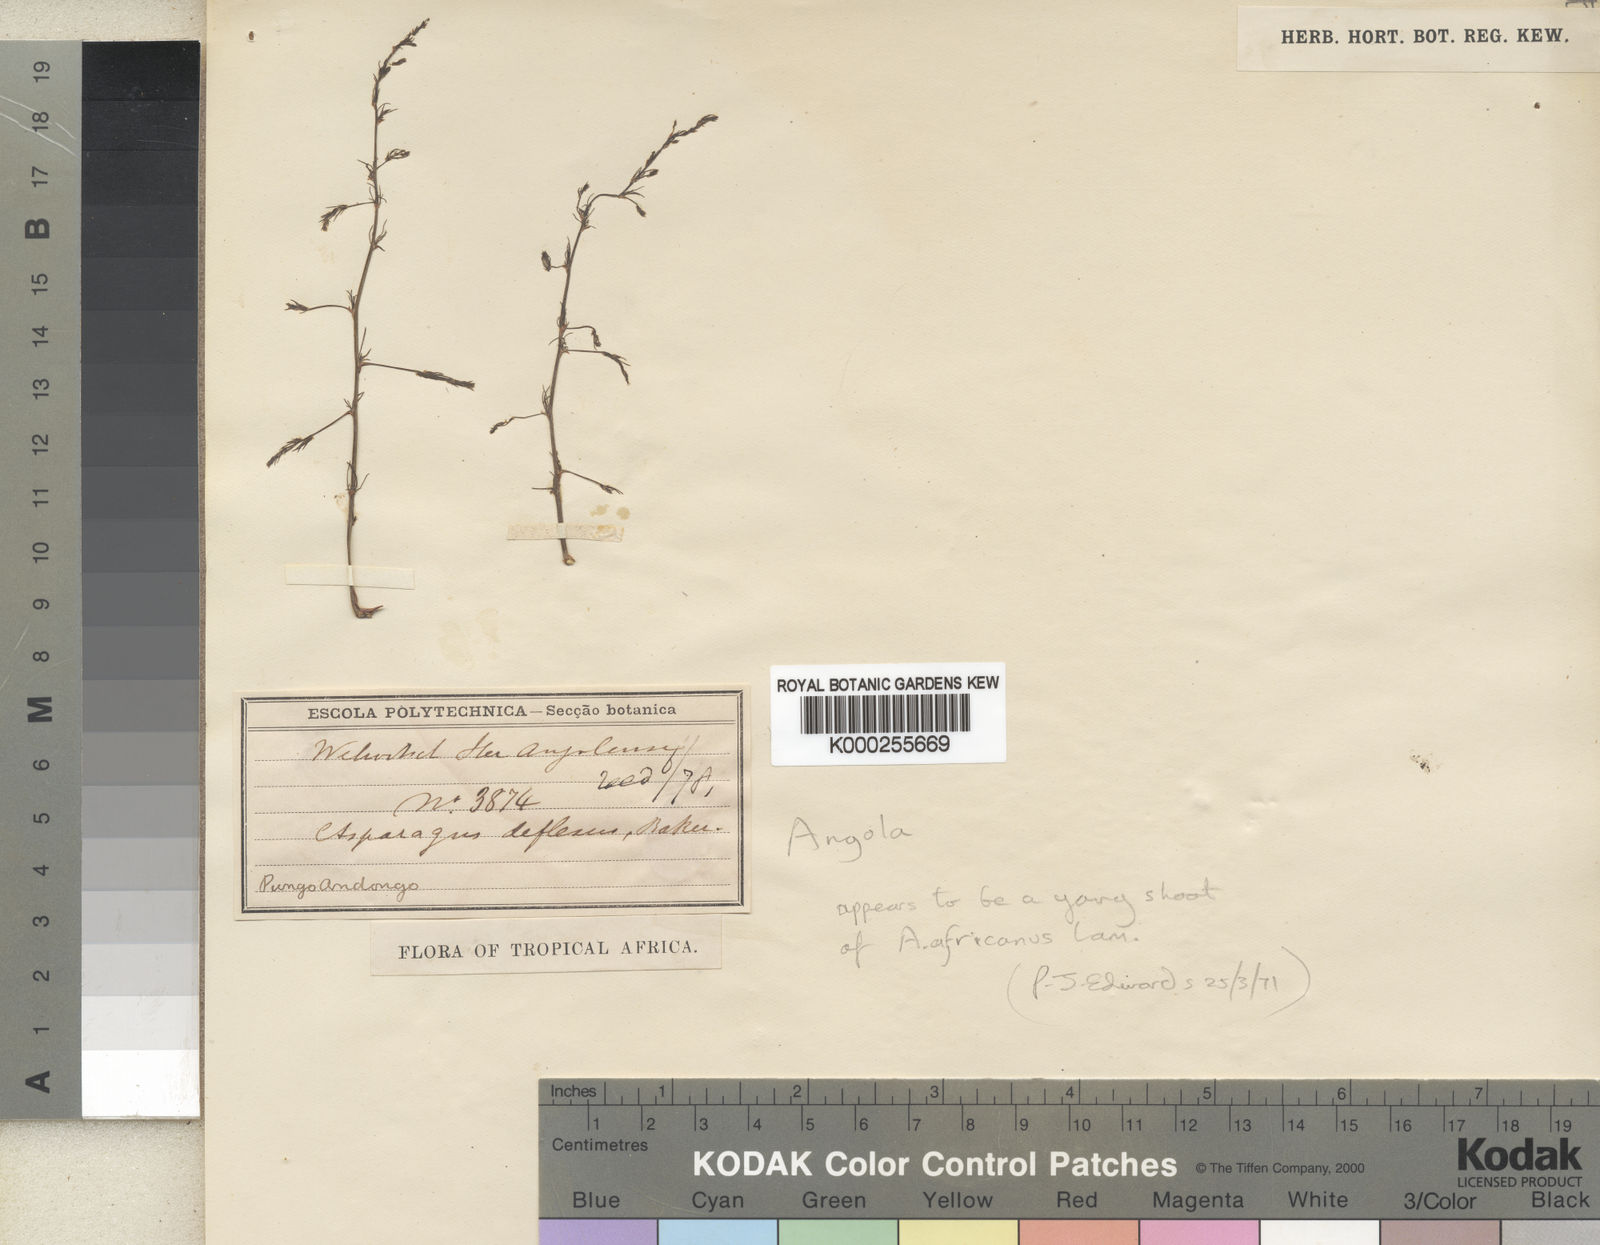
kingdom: Plantae
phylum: Tracheophyta
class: Liliopsida
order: Asparagales
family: Asparagaceae
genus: Asparagus
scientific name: Asparagus africanus
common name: Asparagus-fern
